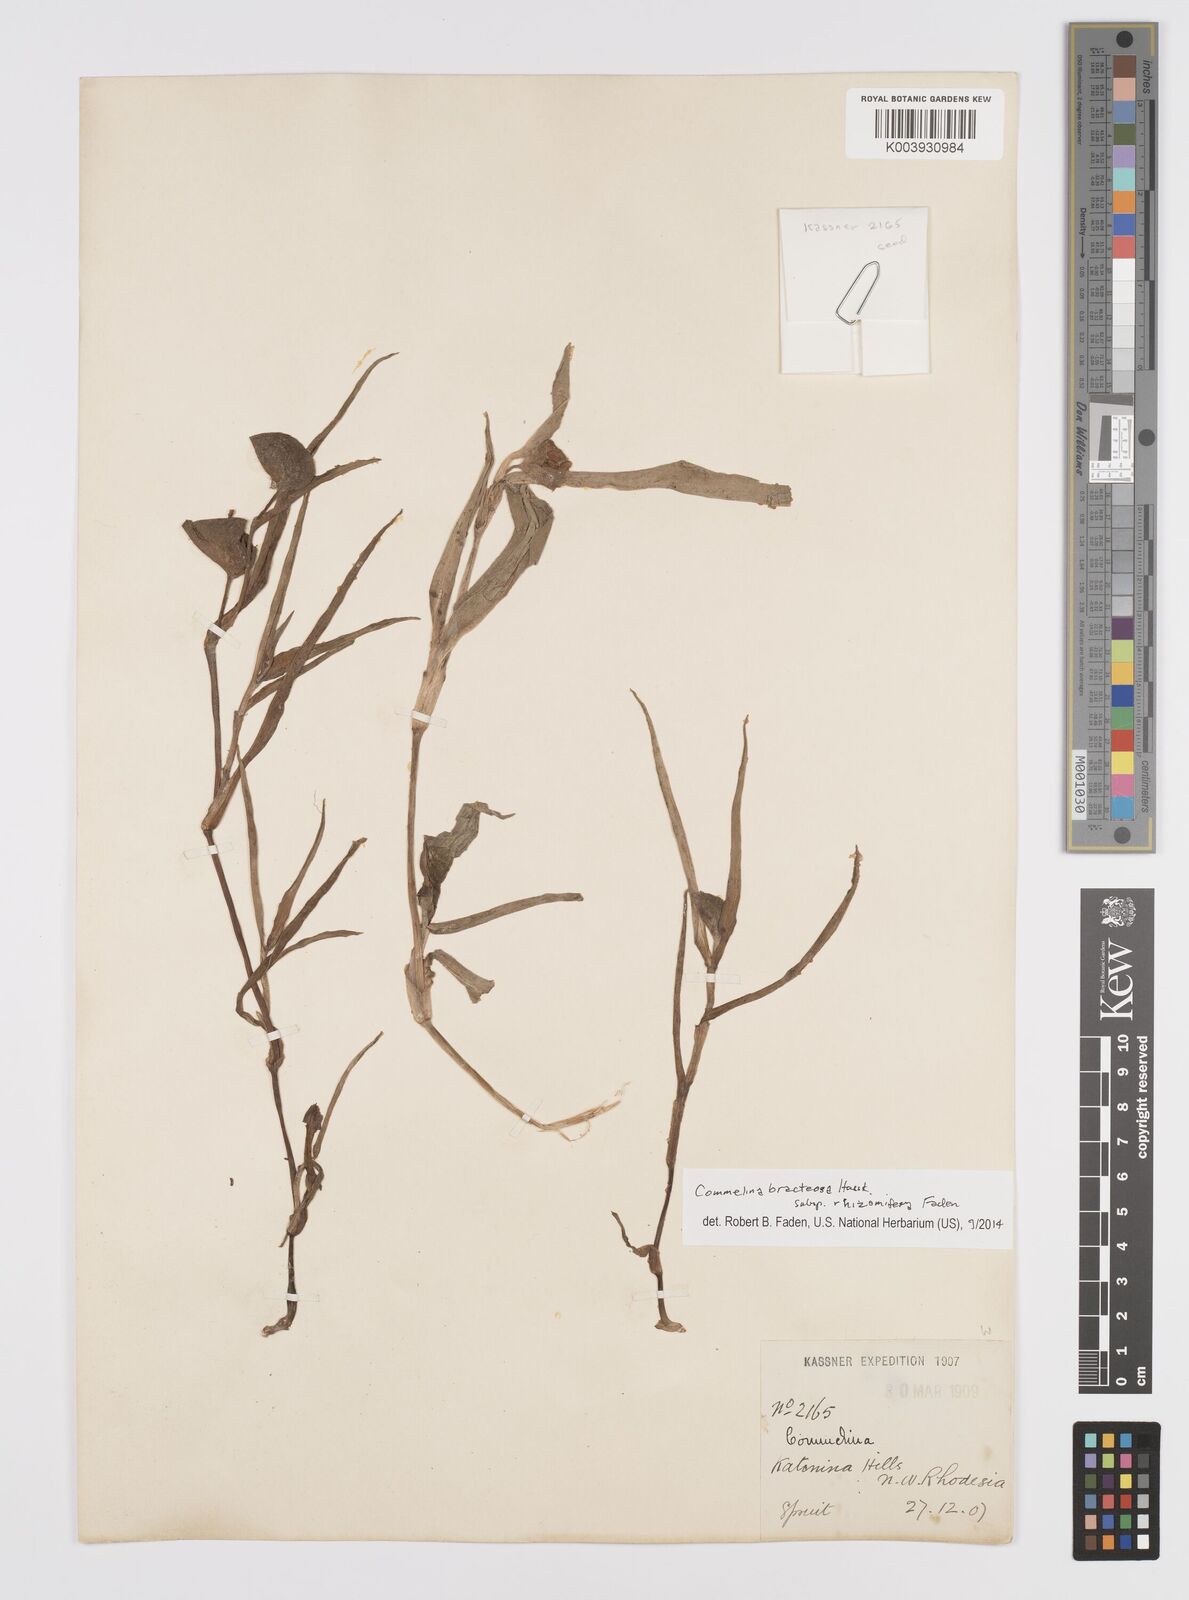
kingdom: Plantae
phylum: Tracheophyta
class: Liliopsida
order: Commelinales
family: Commelinaceae
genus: Commelina
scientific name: Commelina bracteosa
